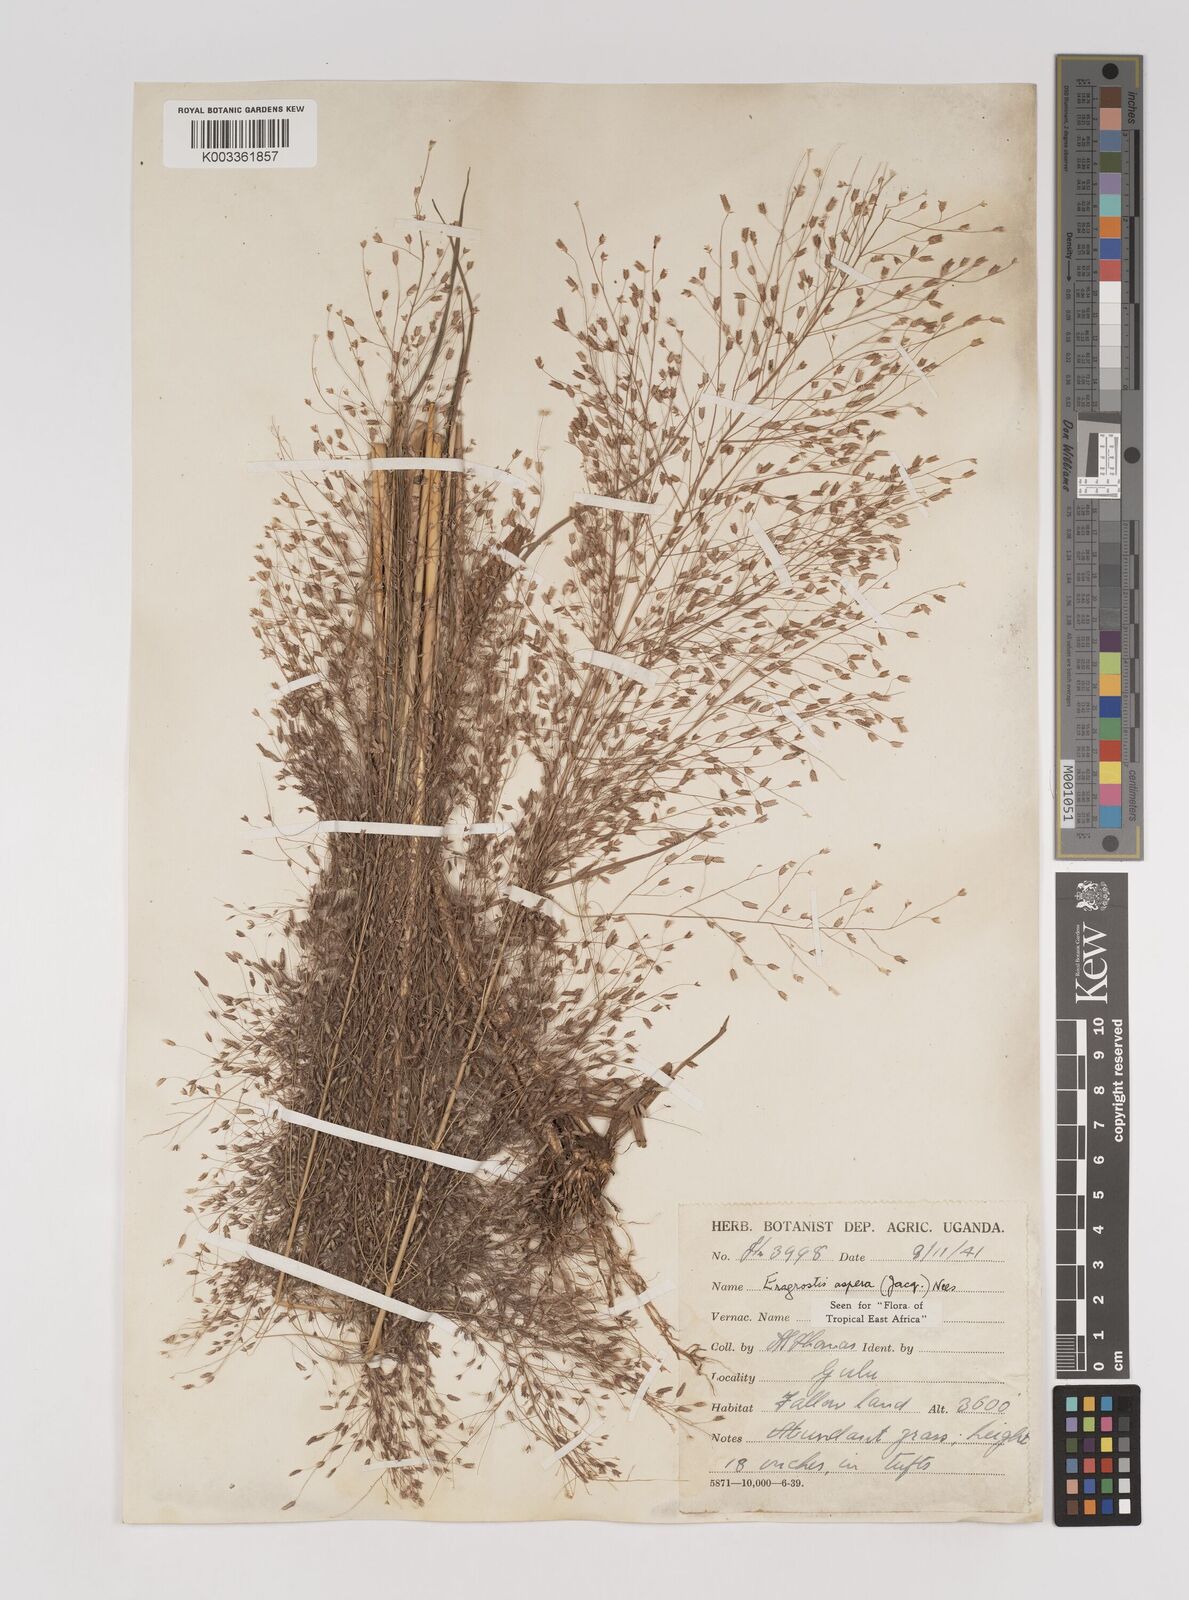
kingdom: Plantae
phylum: Tracheophyta
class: Liliopsida
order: Poales
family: Poaceae
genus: Eragrostis
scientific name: Eragrostis aspera
